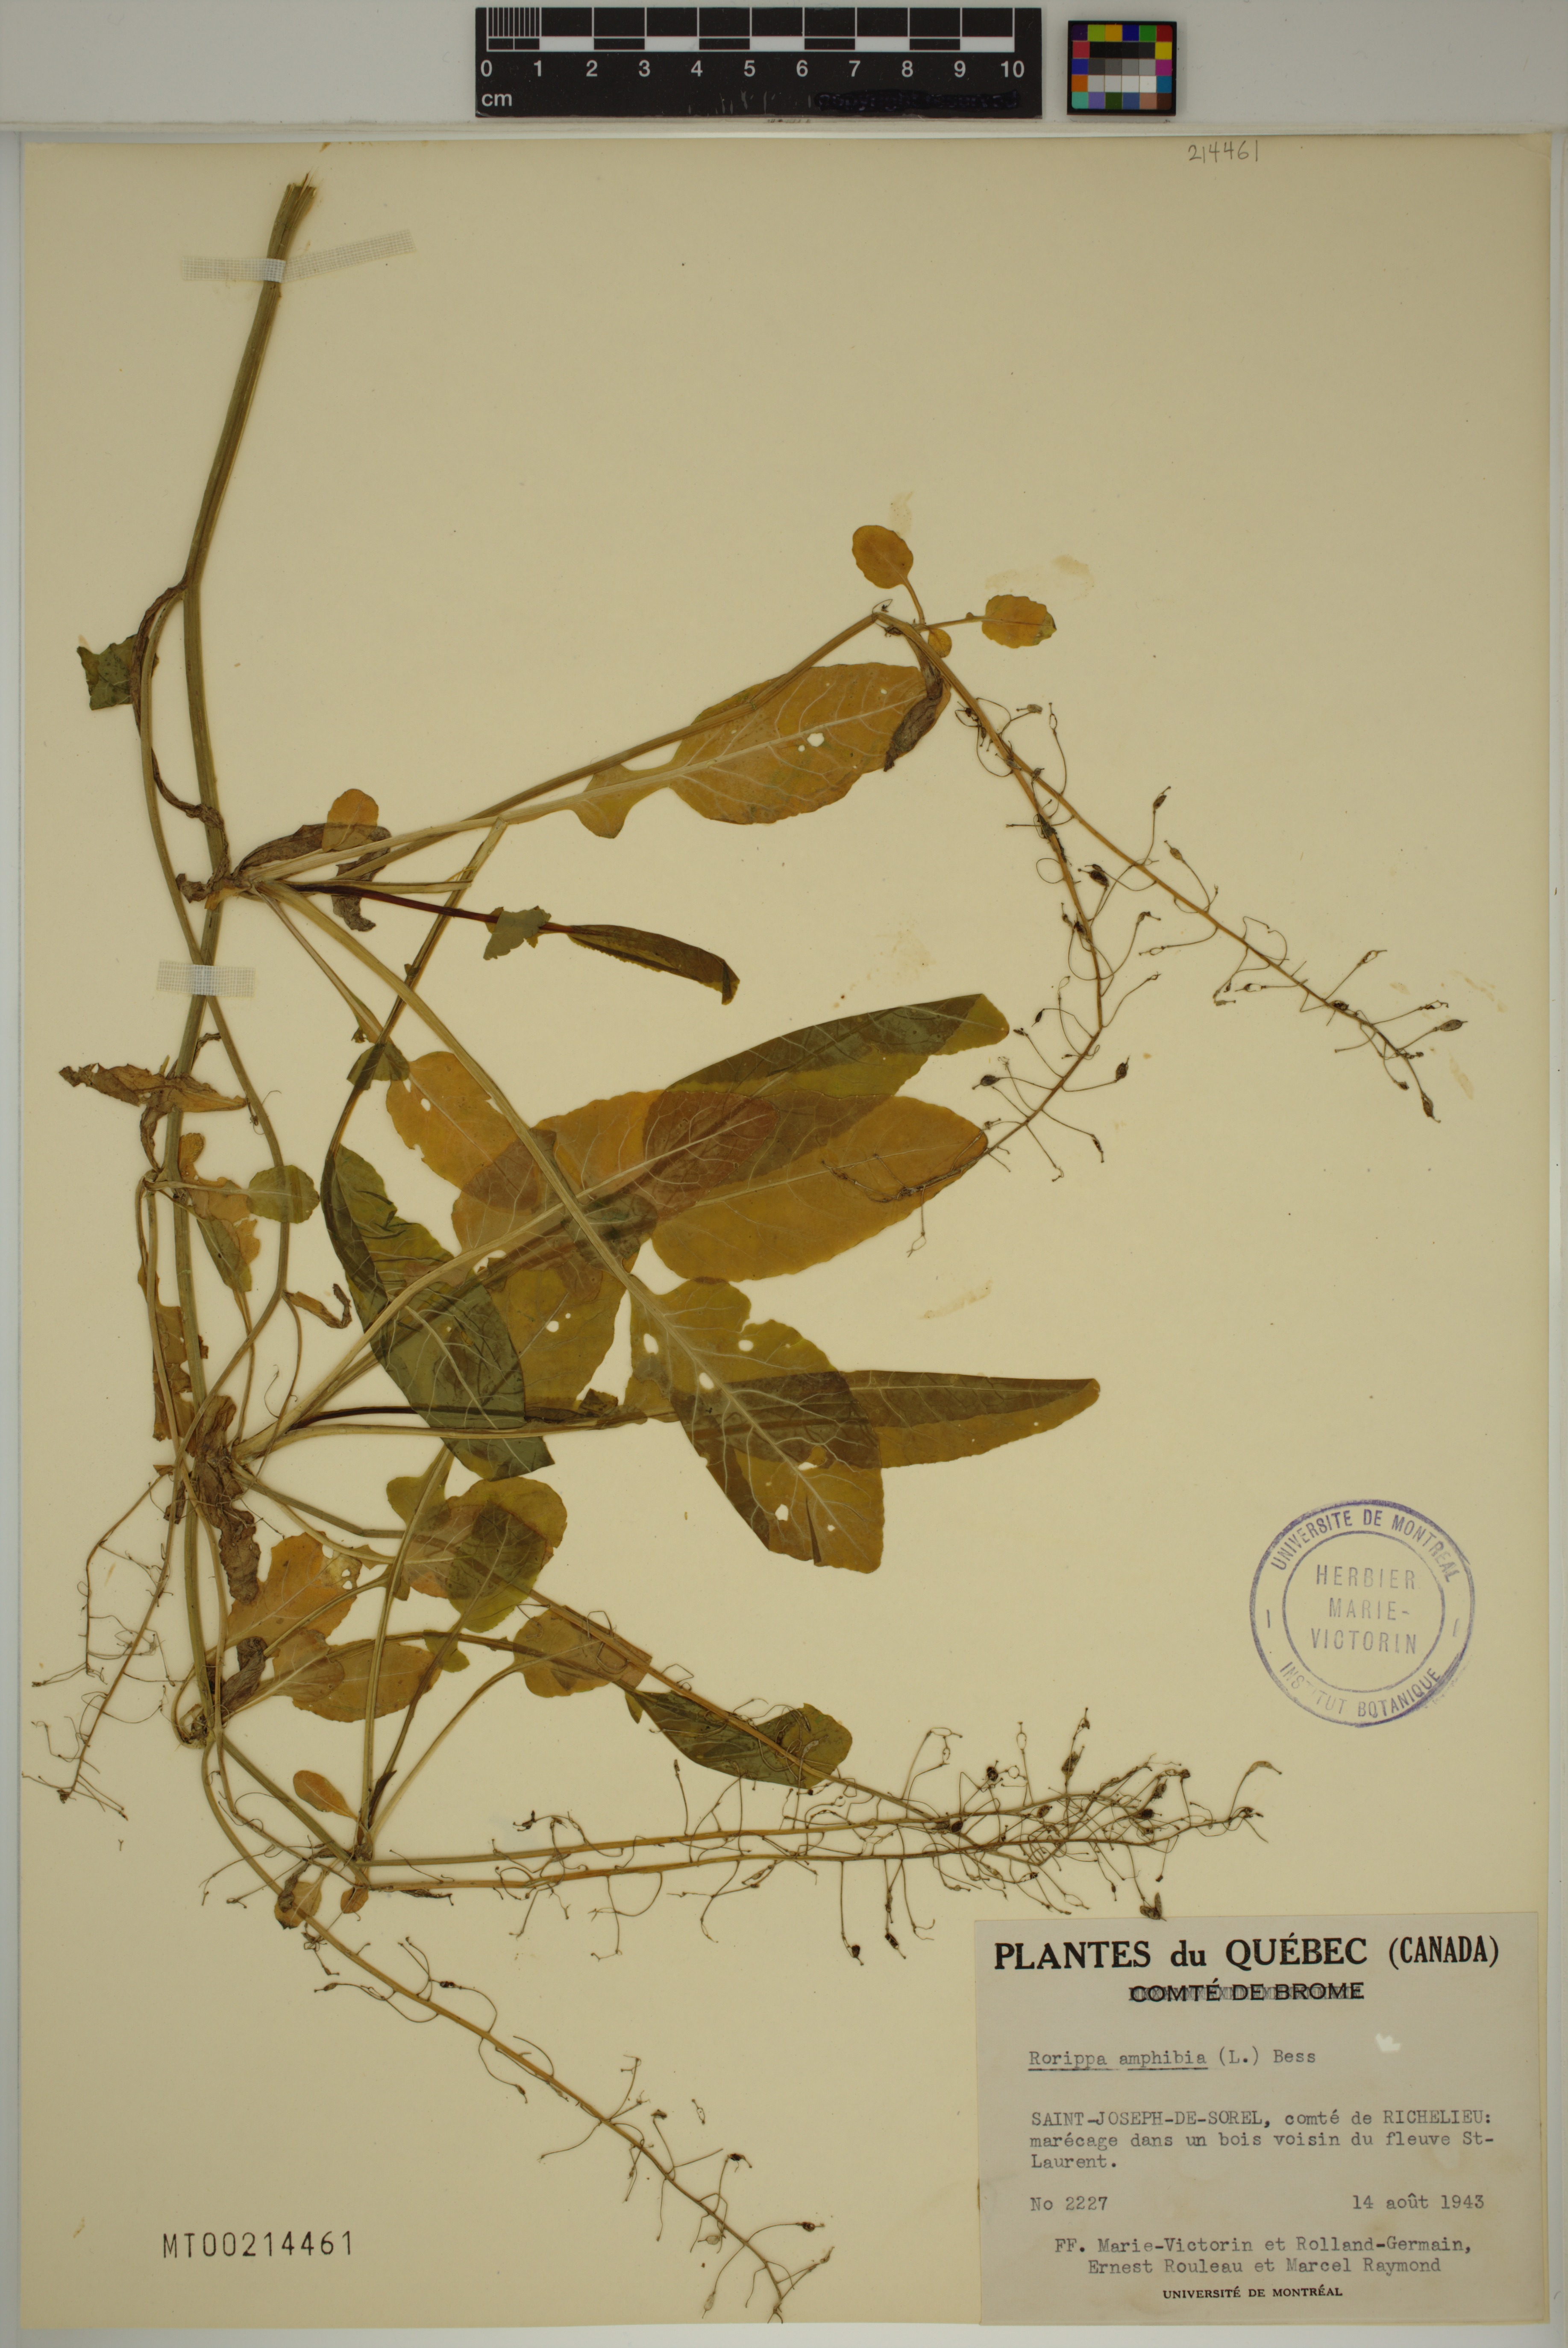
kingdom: Plantae
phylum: Tracheophyta
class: Magnoliopsida
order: Brassicales
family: Brassicaceae
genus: Rorippa
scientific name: Rorippa amphibia
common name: Great yellow-cress
